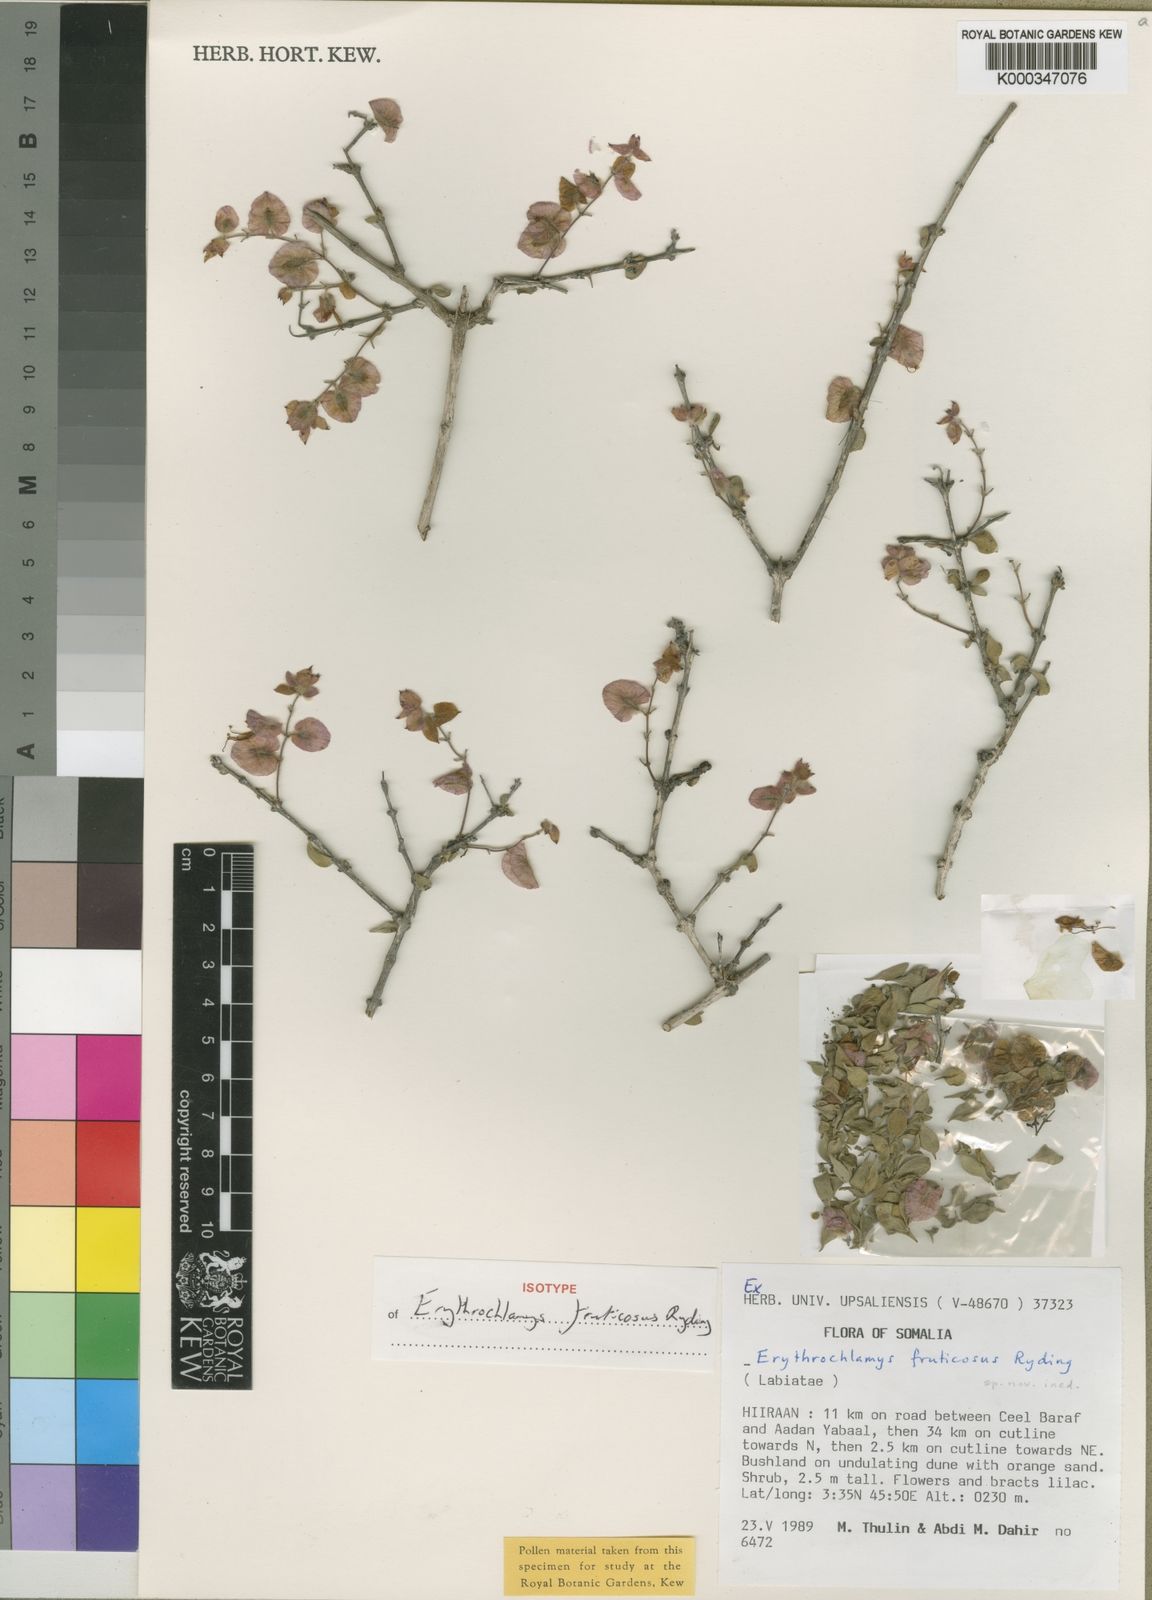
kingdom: Plantae
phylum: Tracheophyta
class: Magnoliopsida
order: Lamiales
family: Lamiaceae
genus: Ocimum
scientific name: Ocimum fruticosum
